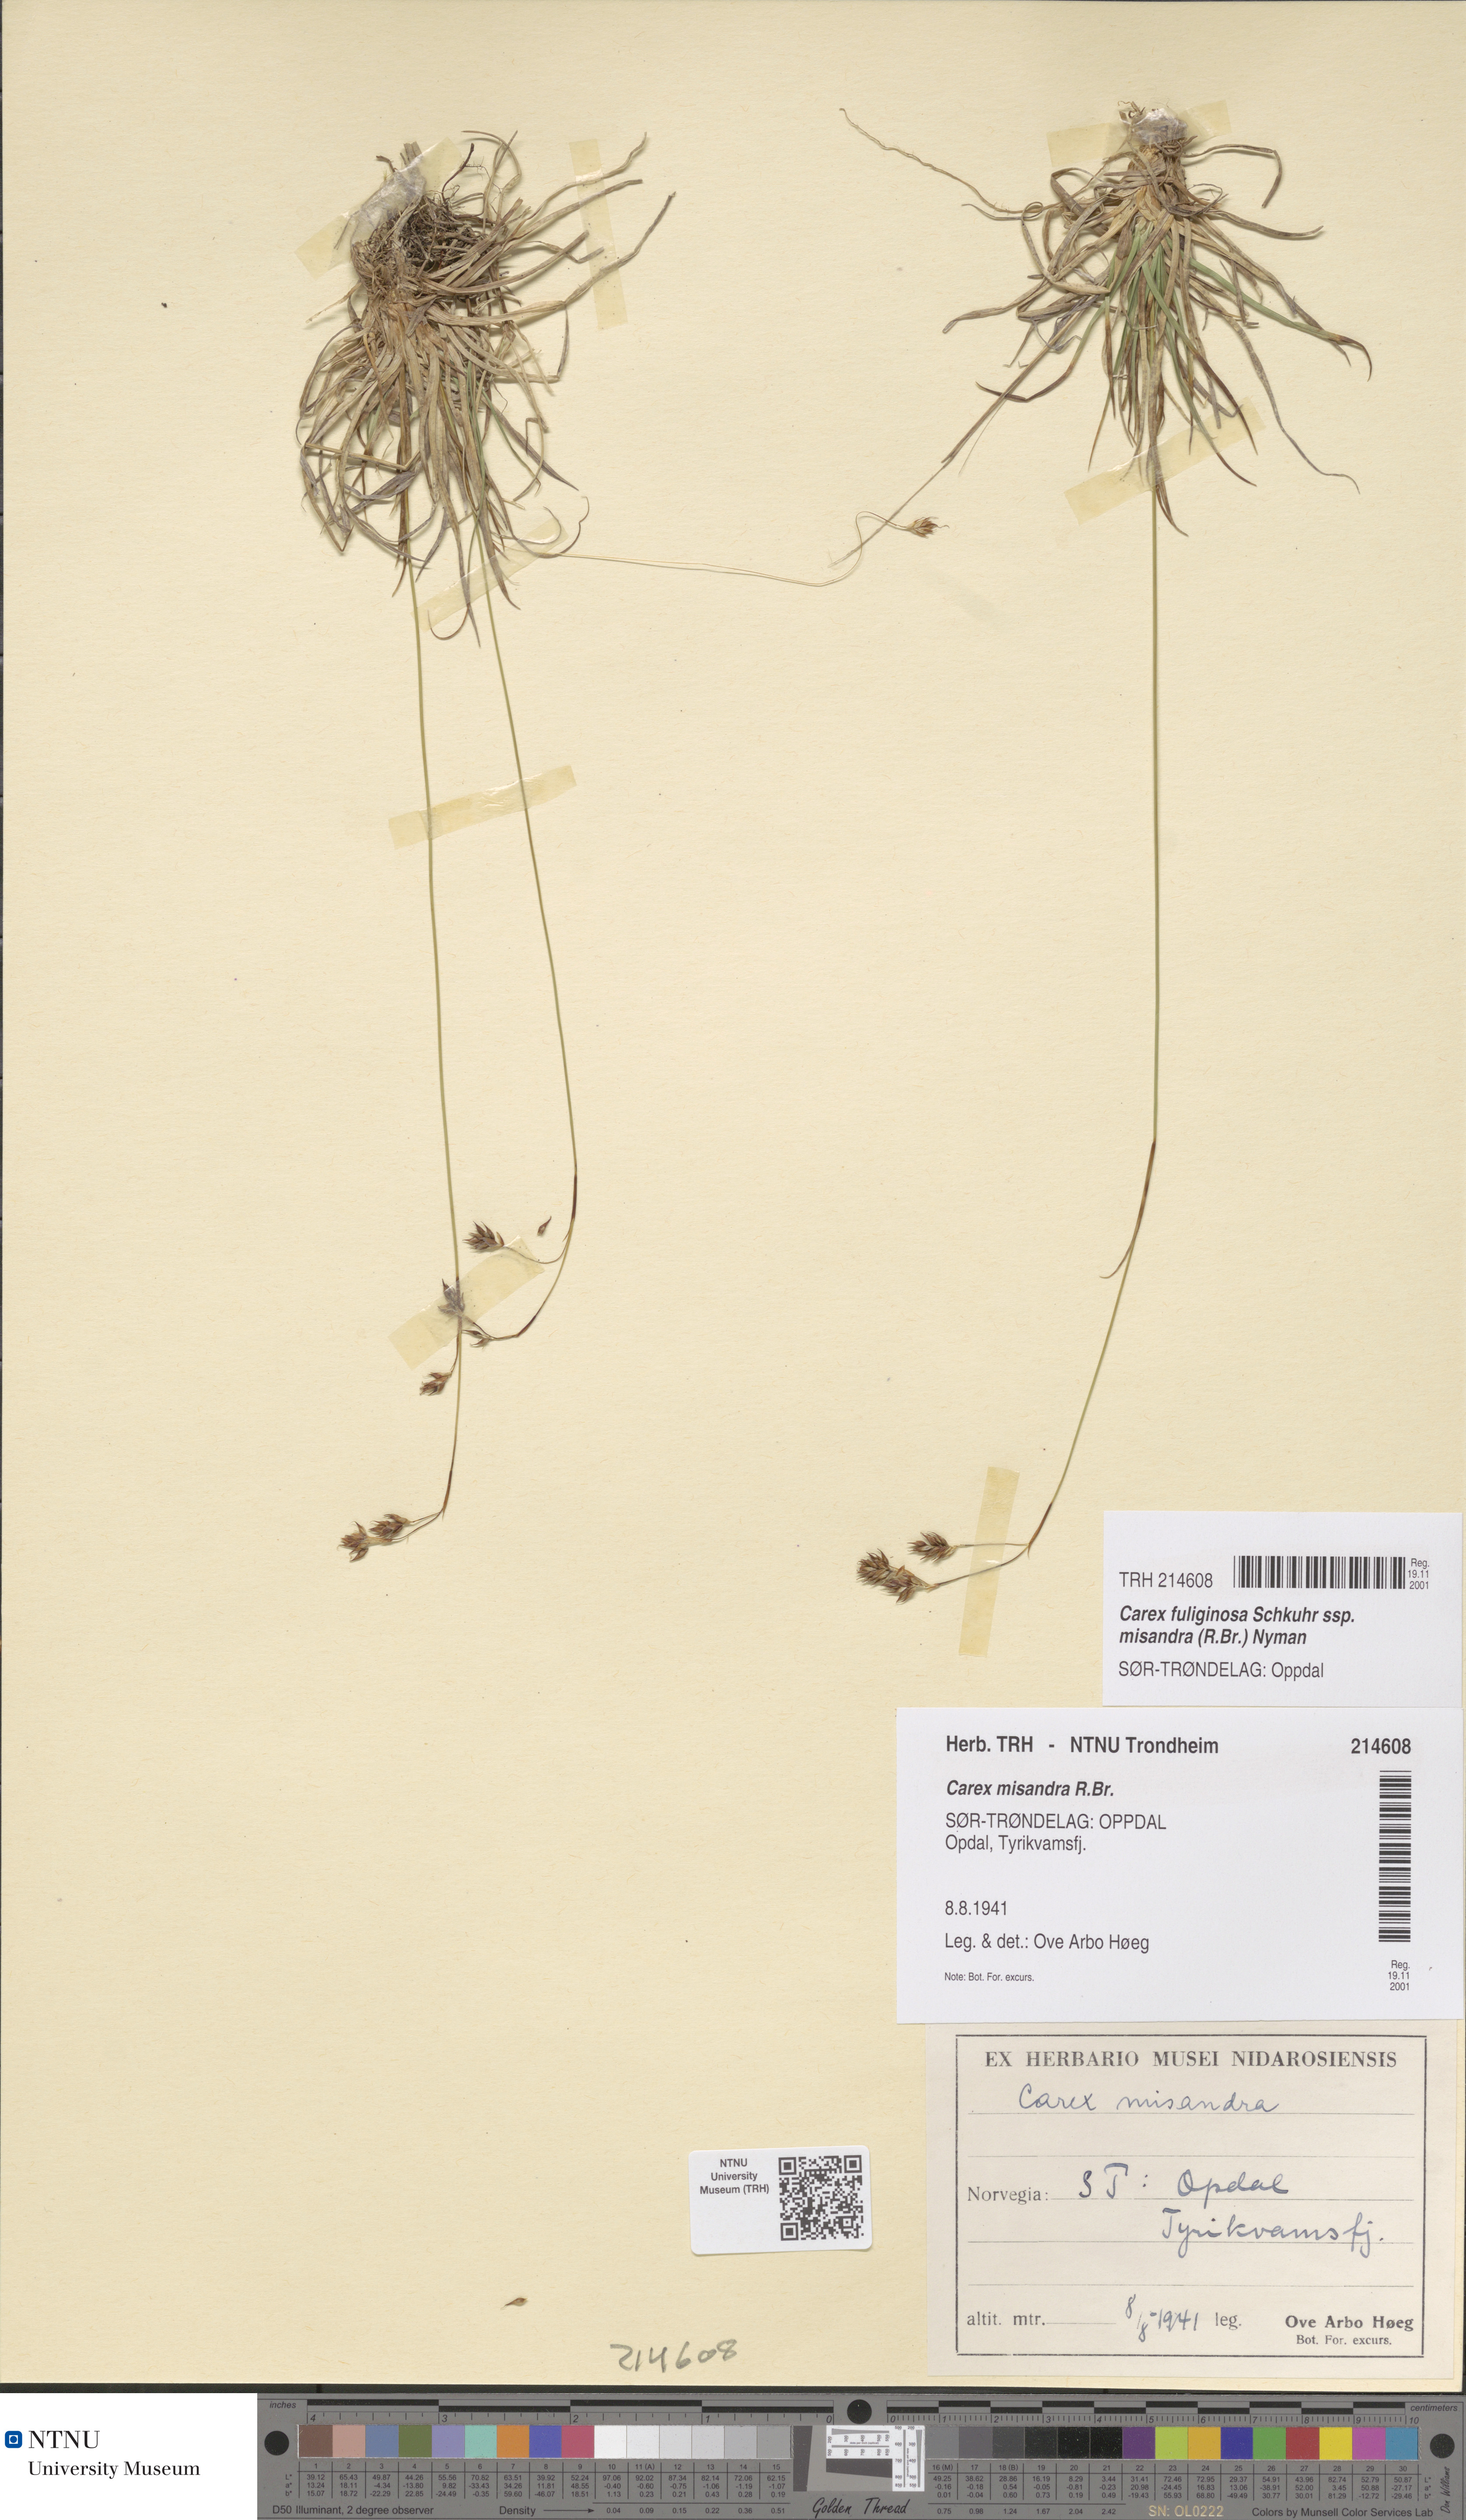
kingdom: Plantae
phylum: Tracheophyta
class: Liliopsida
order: Poales
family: Cyperaceae
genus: Carex
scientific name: Carex fuliginosa
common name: Few-flowered sedge
